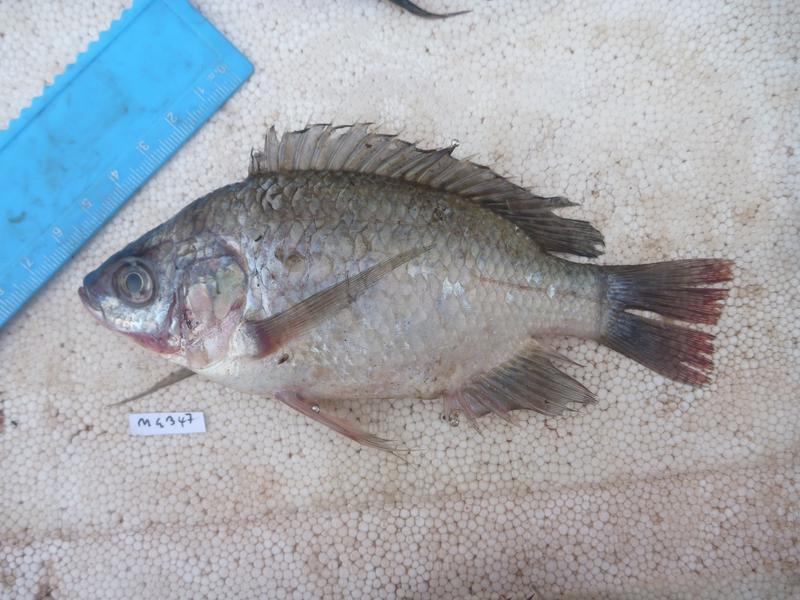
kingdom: Animalia
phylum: Chordata
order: Perciformes
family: Cichlidae
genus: Oreochromis
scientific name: Oreochromis esculentus
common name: Carp
